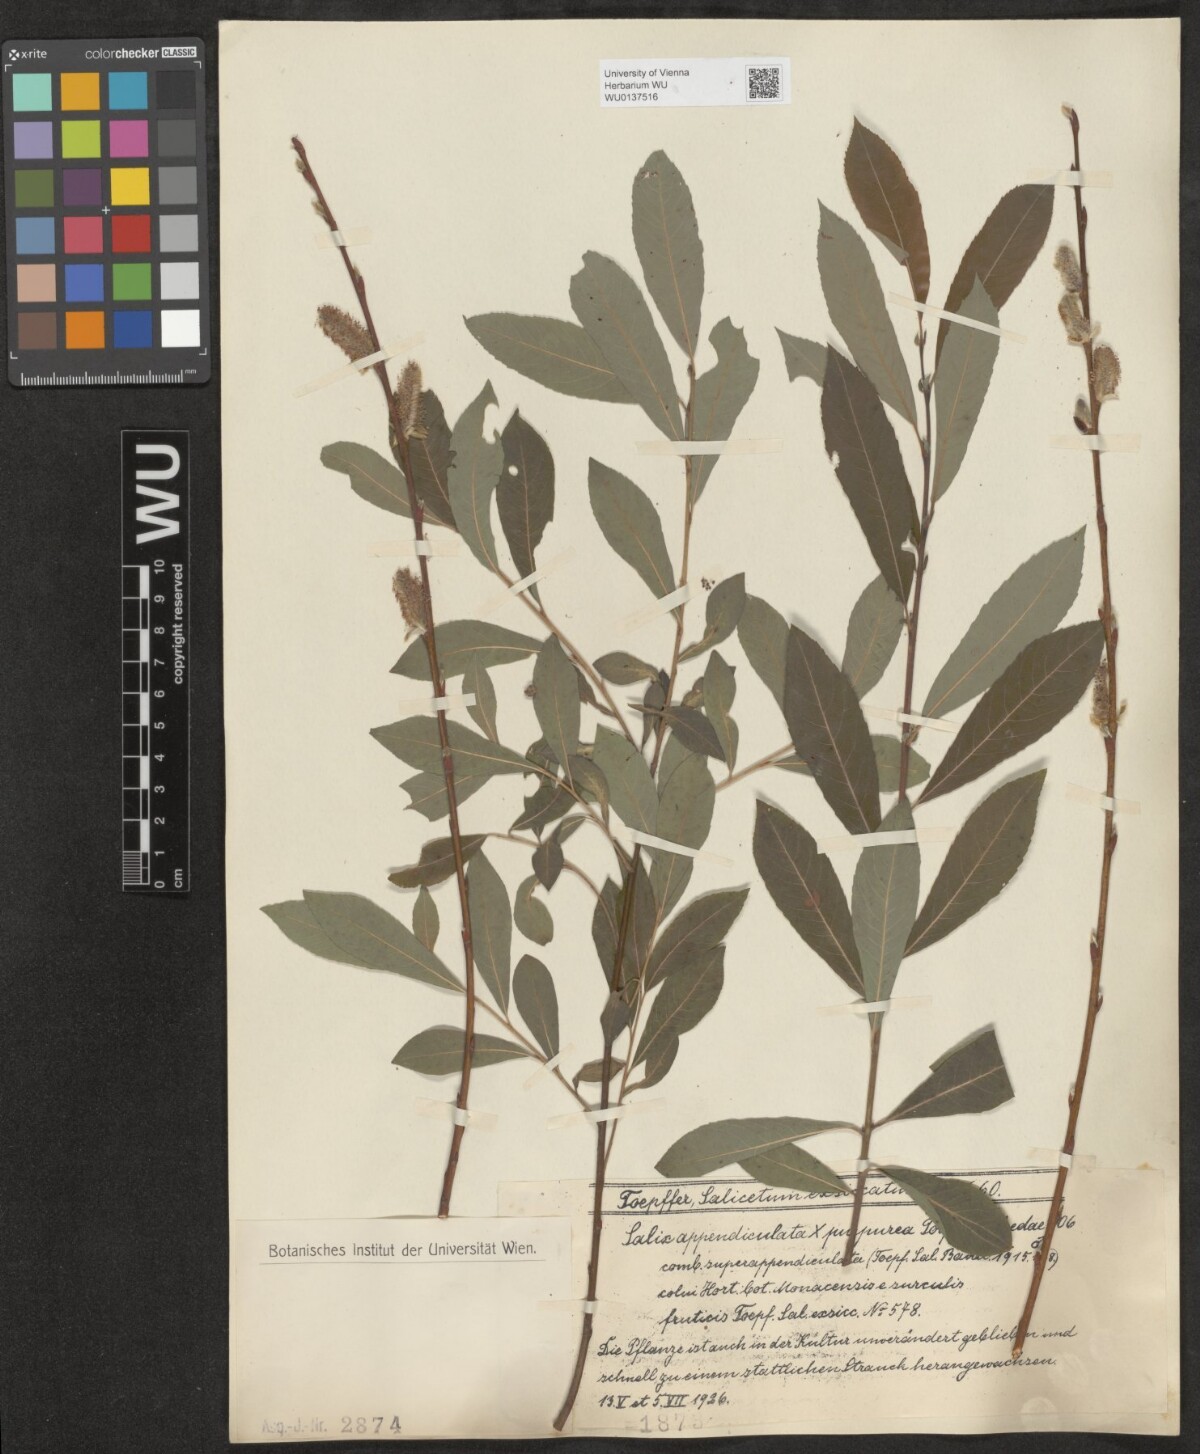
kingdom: Plantae
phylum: Tracheophyta
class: Magnoliopsida
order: Malpighiales
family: Salicaceae
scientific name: Salicaceae
